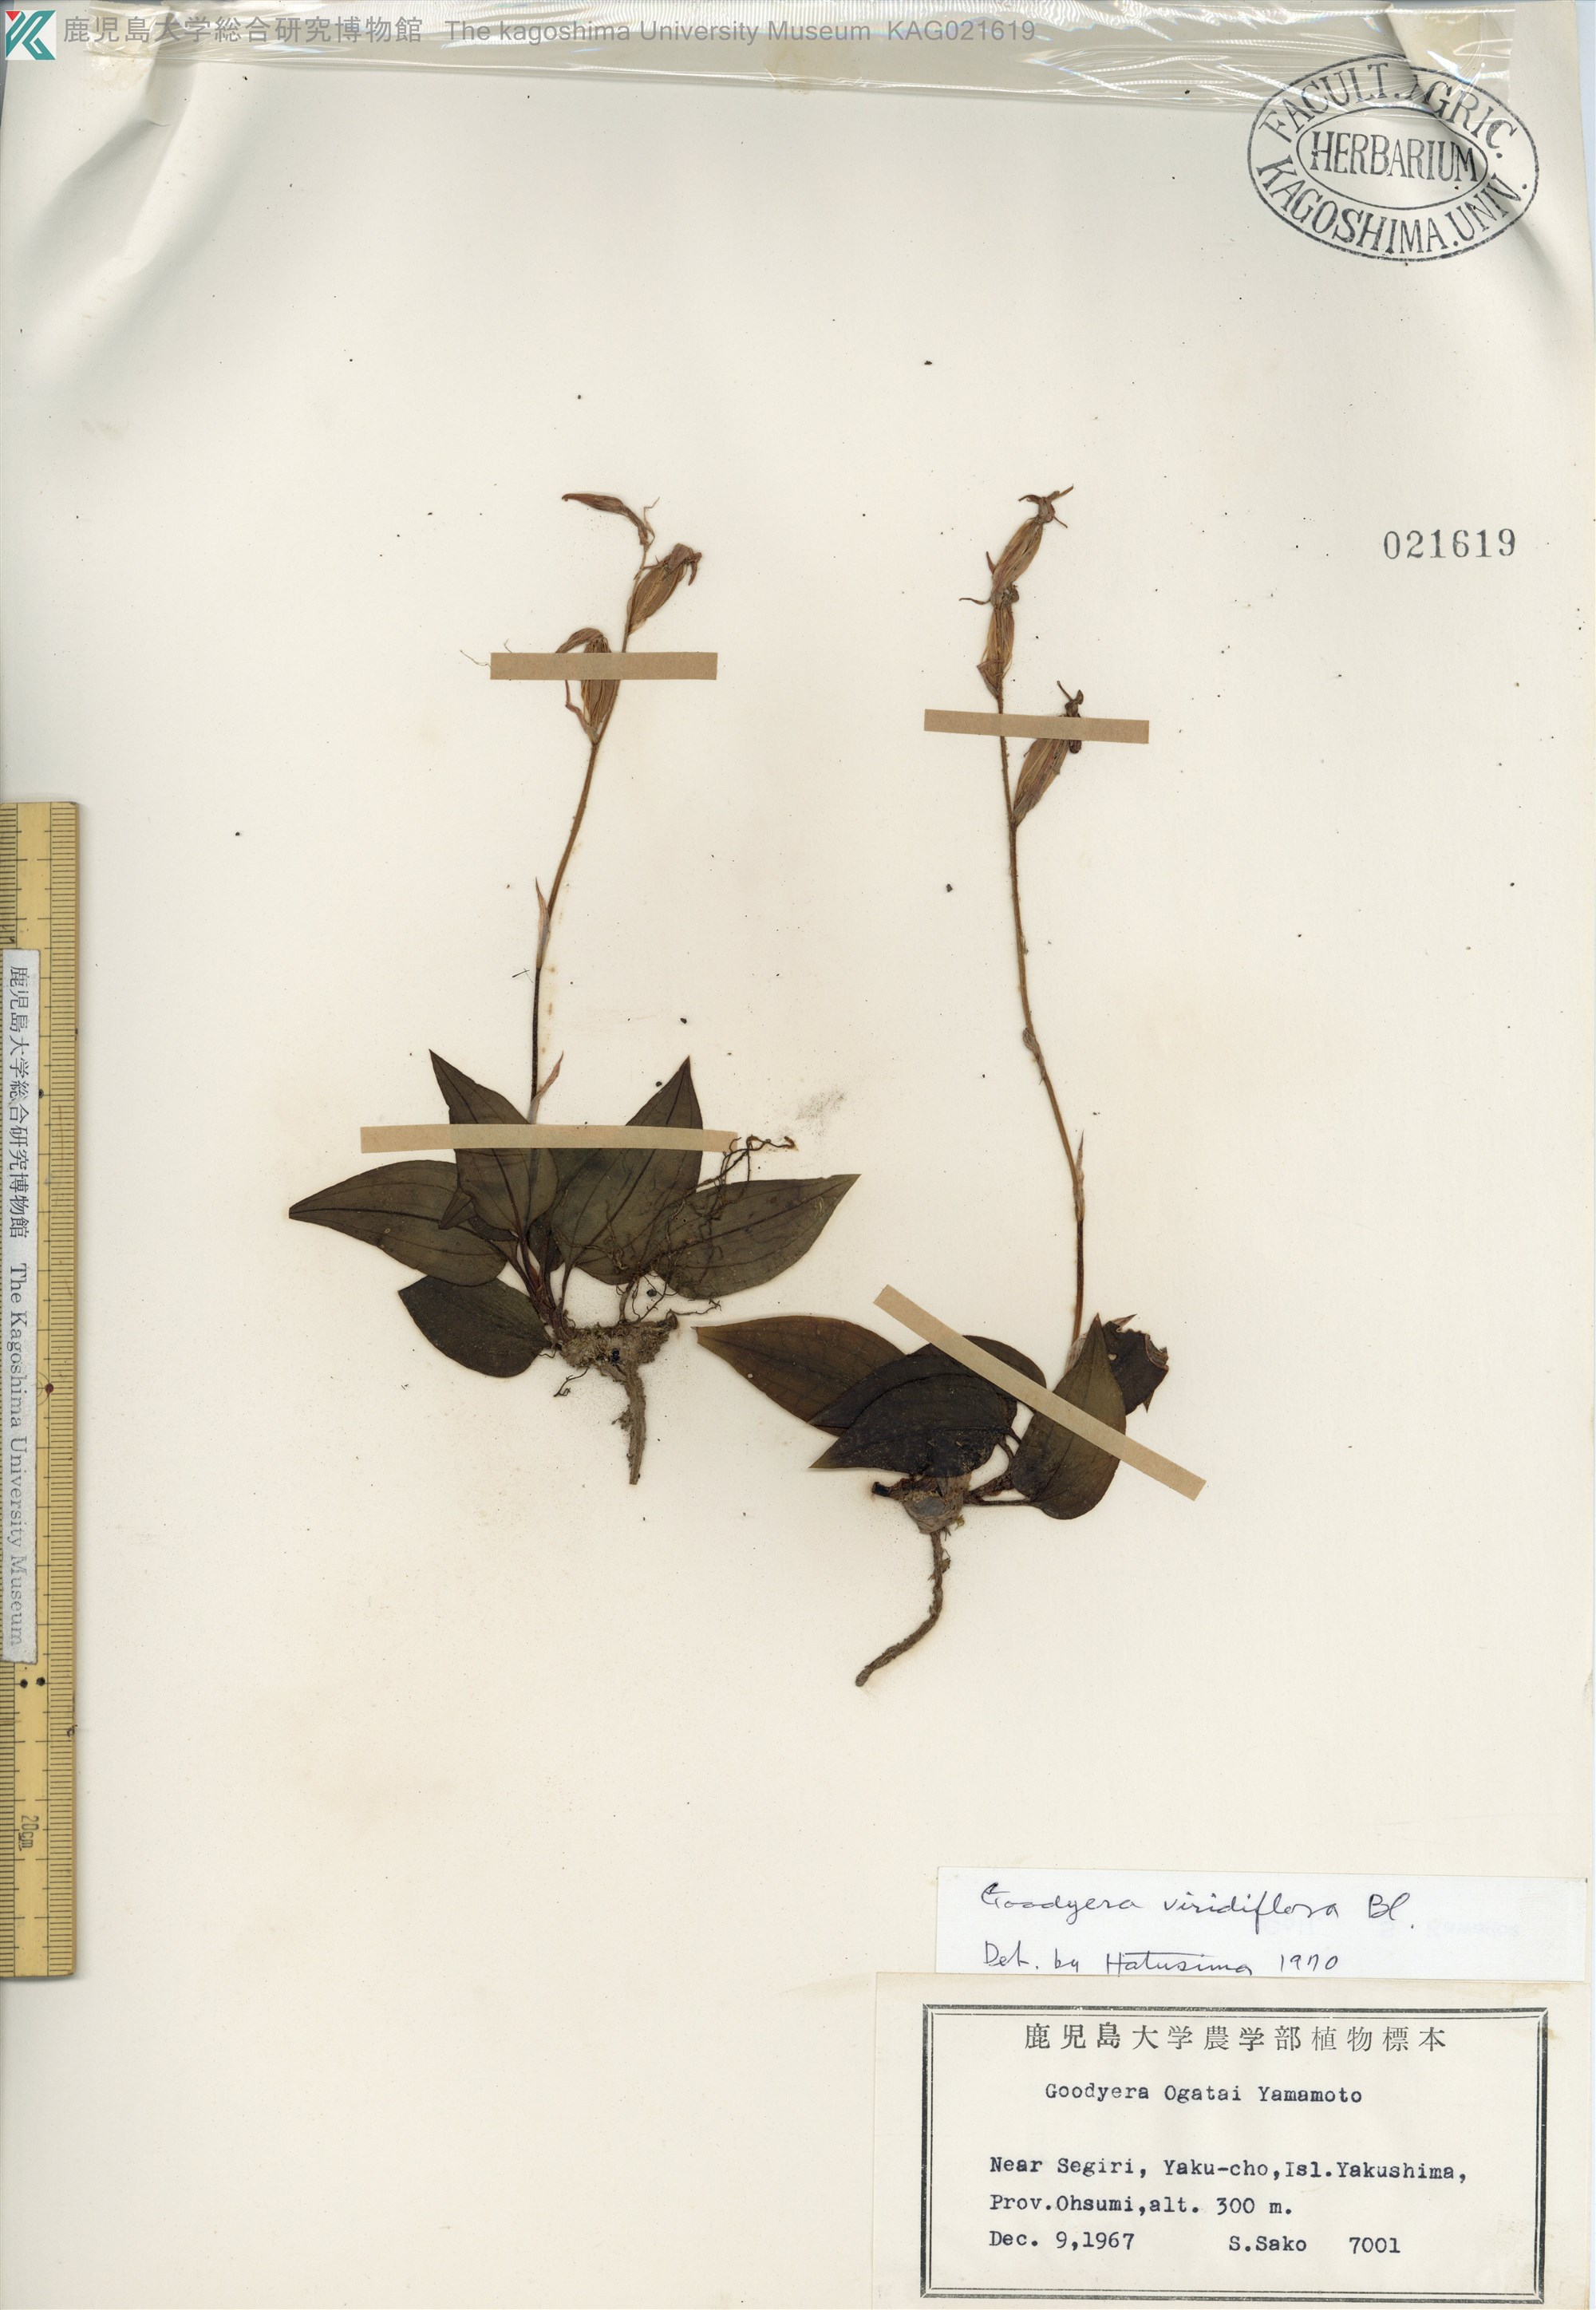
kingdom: Plantae
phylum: Tracheophyta
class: Liliopsida
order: Asparagales
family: Orchidaceae
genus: Goodyera
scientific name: Goodyera viridiflora
